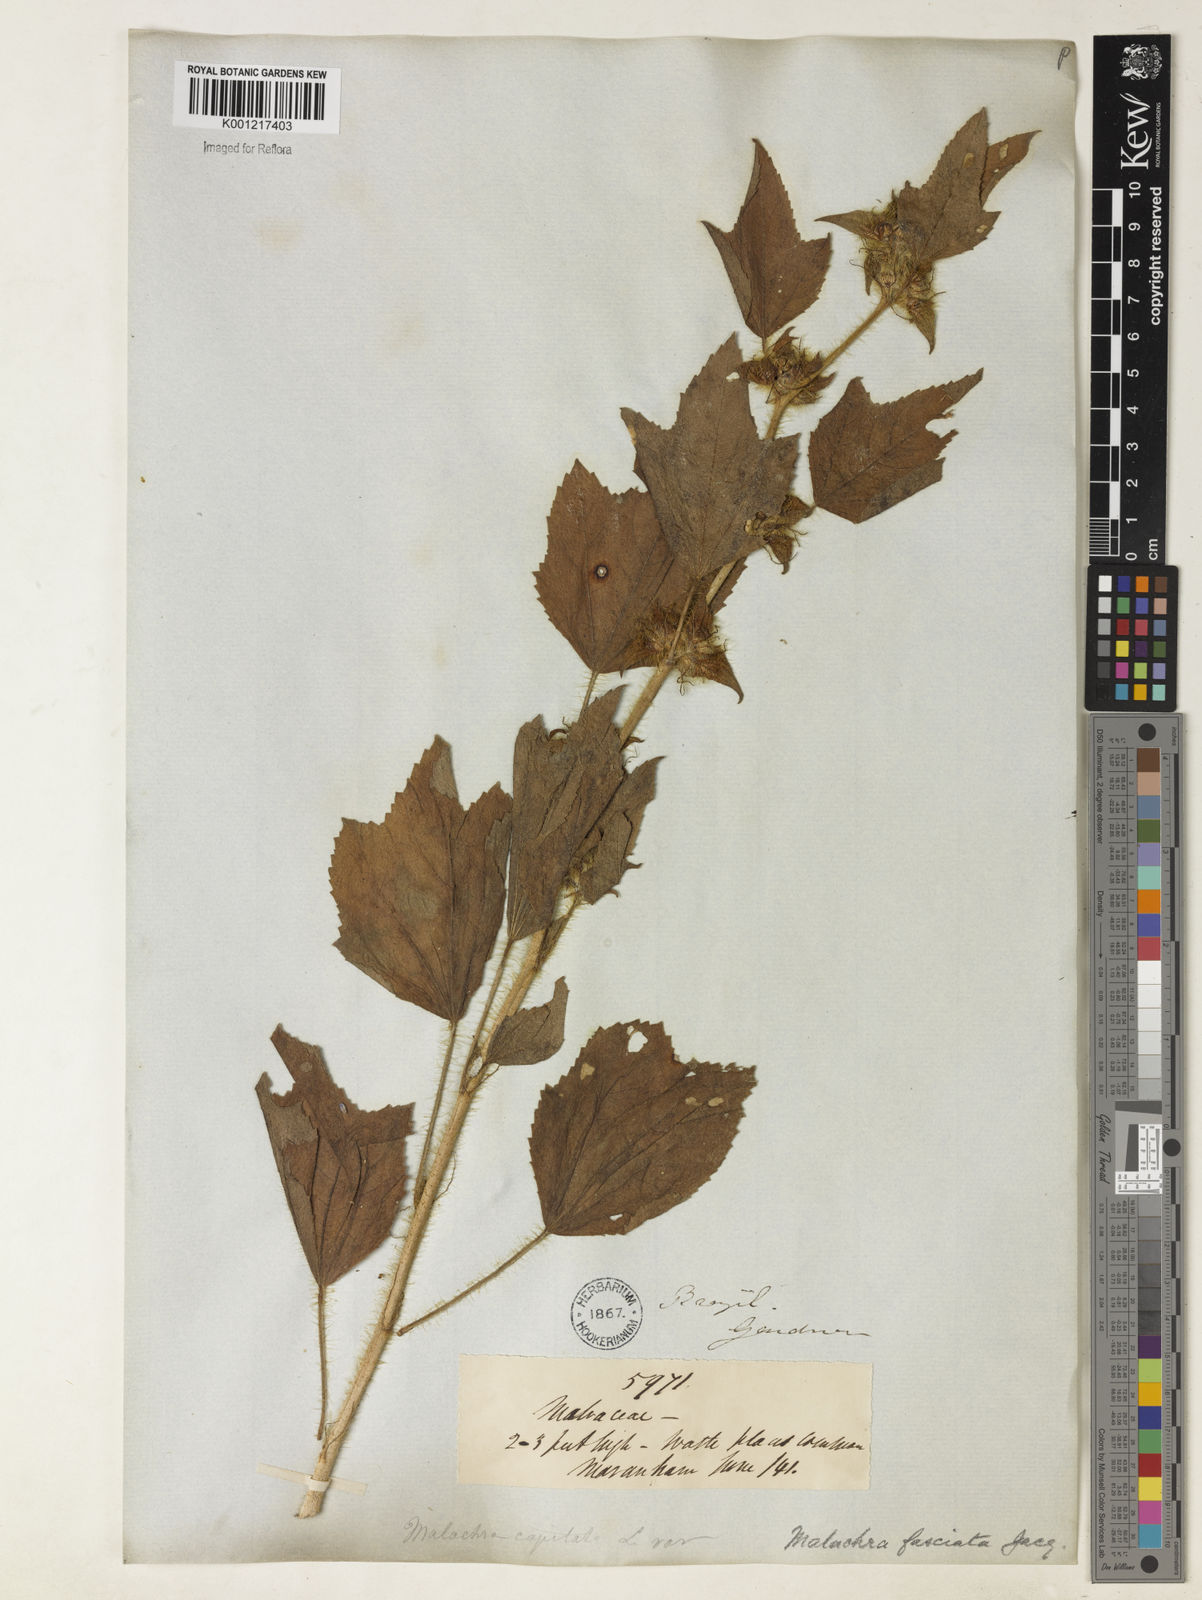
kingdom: Plantae
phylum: Tracheophyta
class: Magnoliopsida
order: Malvales
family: Malvaceae
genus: Malachra
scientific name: Malachra fasciata
